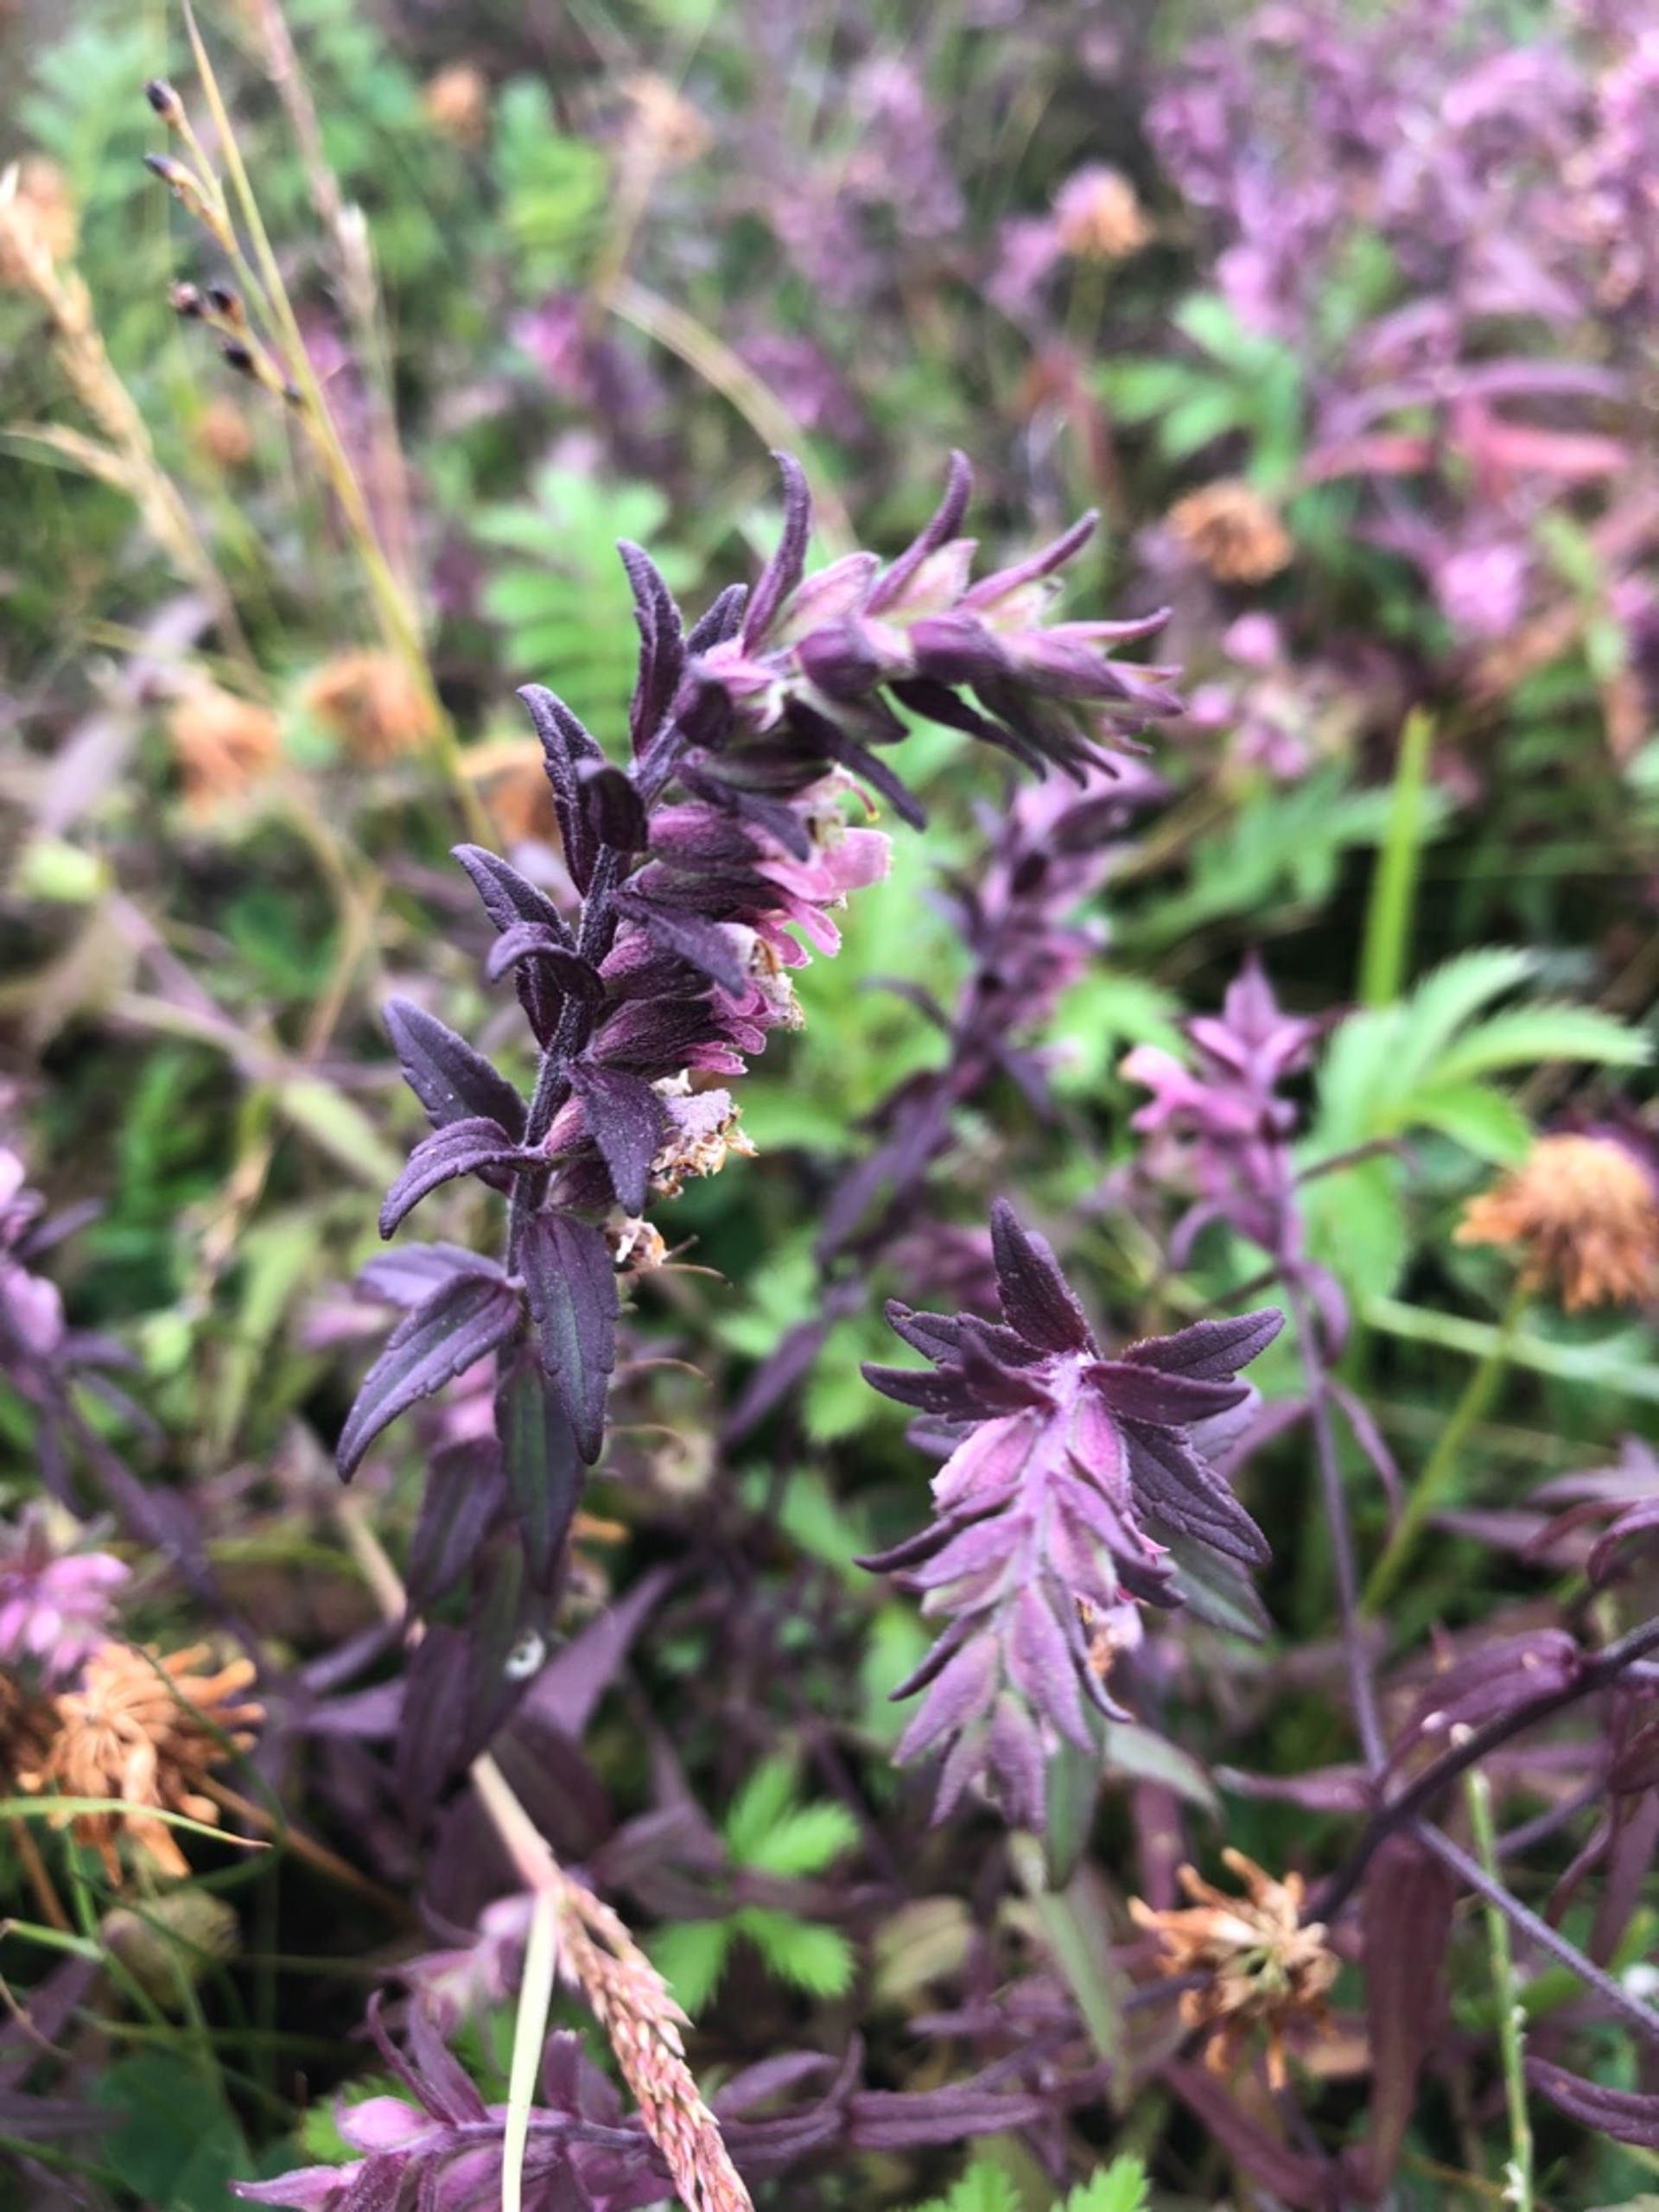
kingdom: Plantae
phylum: Tracheophyta
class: Magnoliopsida
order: Lamiales
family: Orobanchaceae
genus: Odontites
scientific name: Odontites vulgaris
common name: Høst-rødtop
